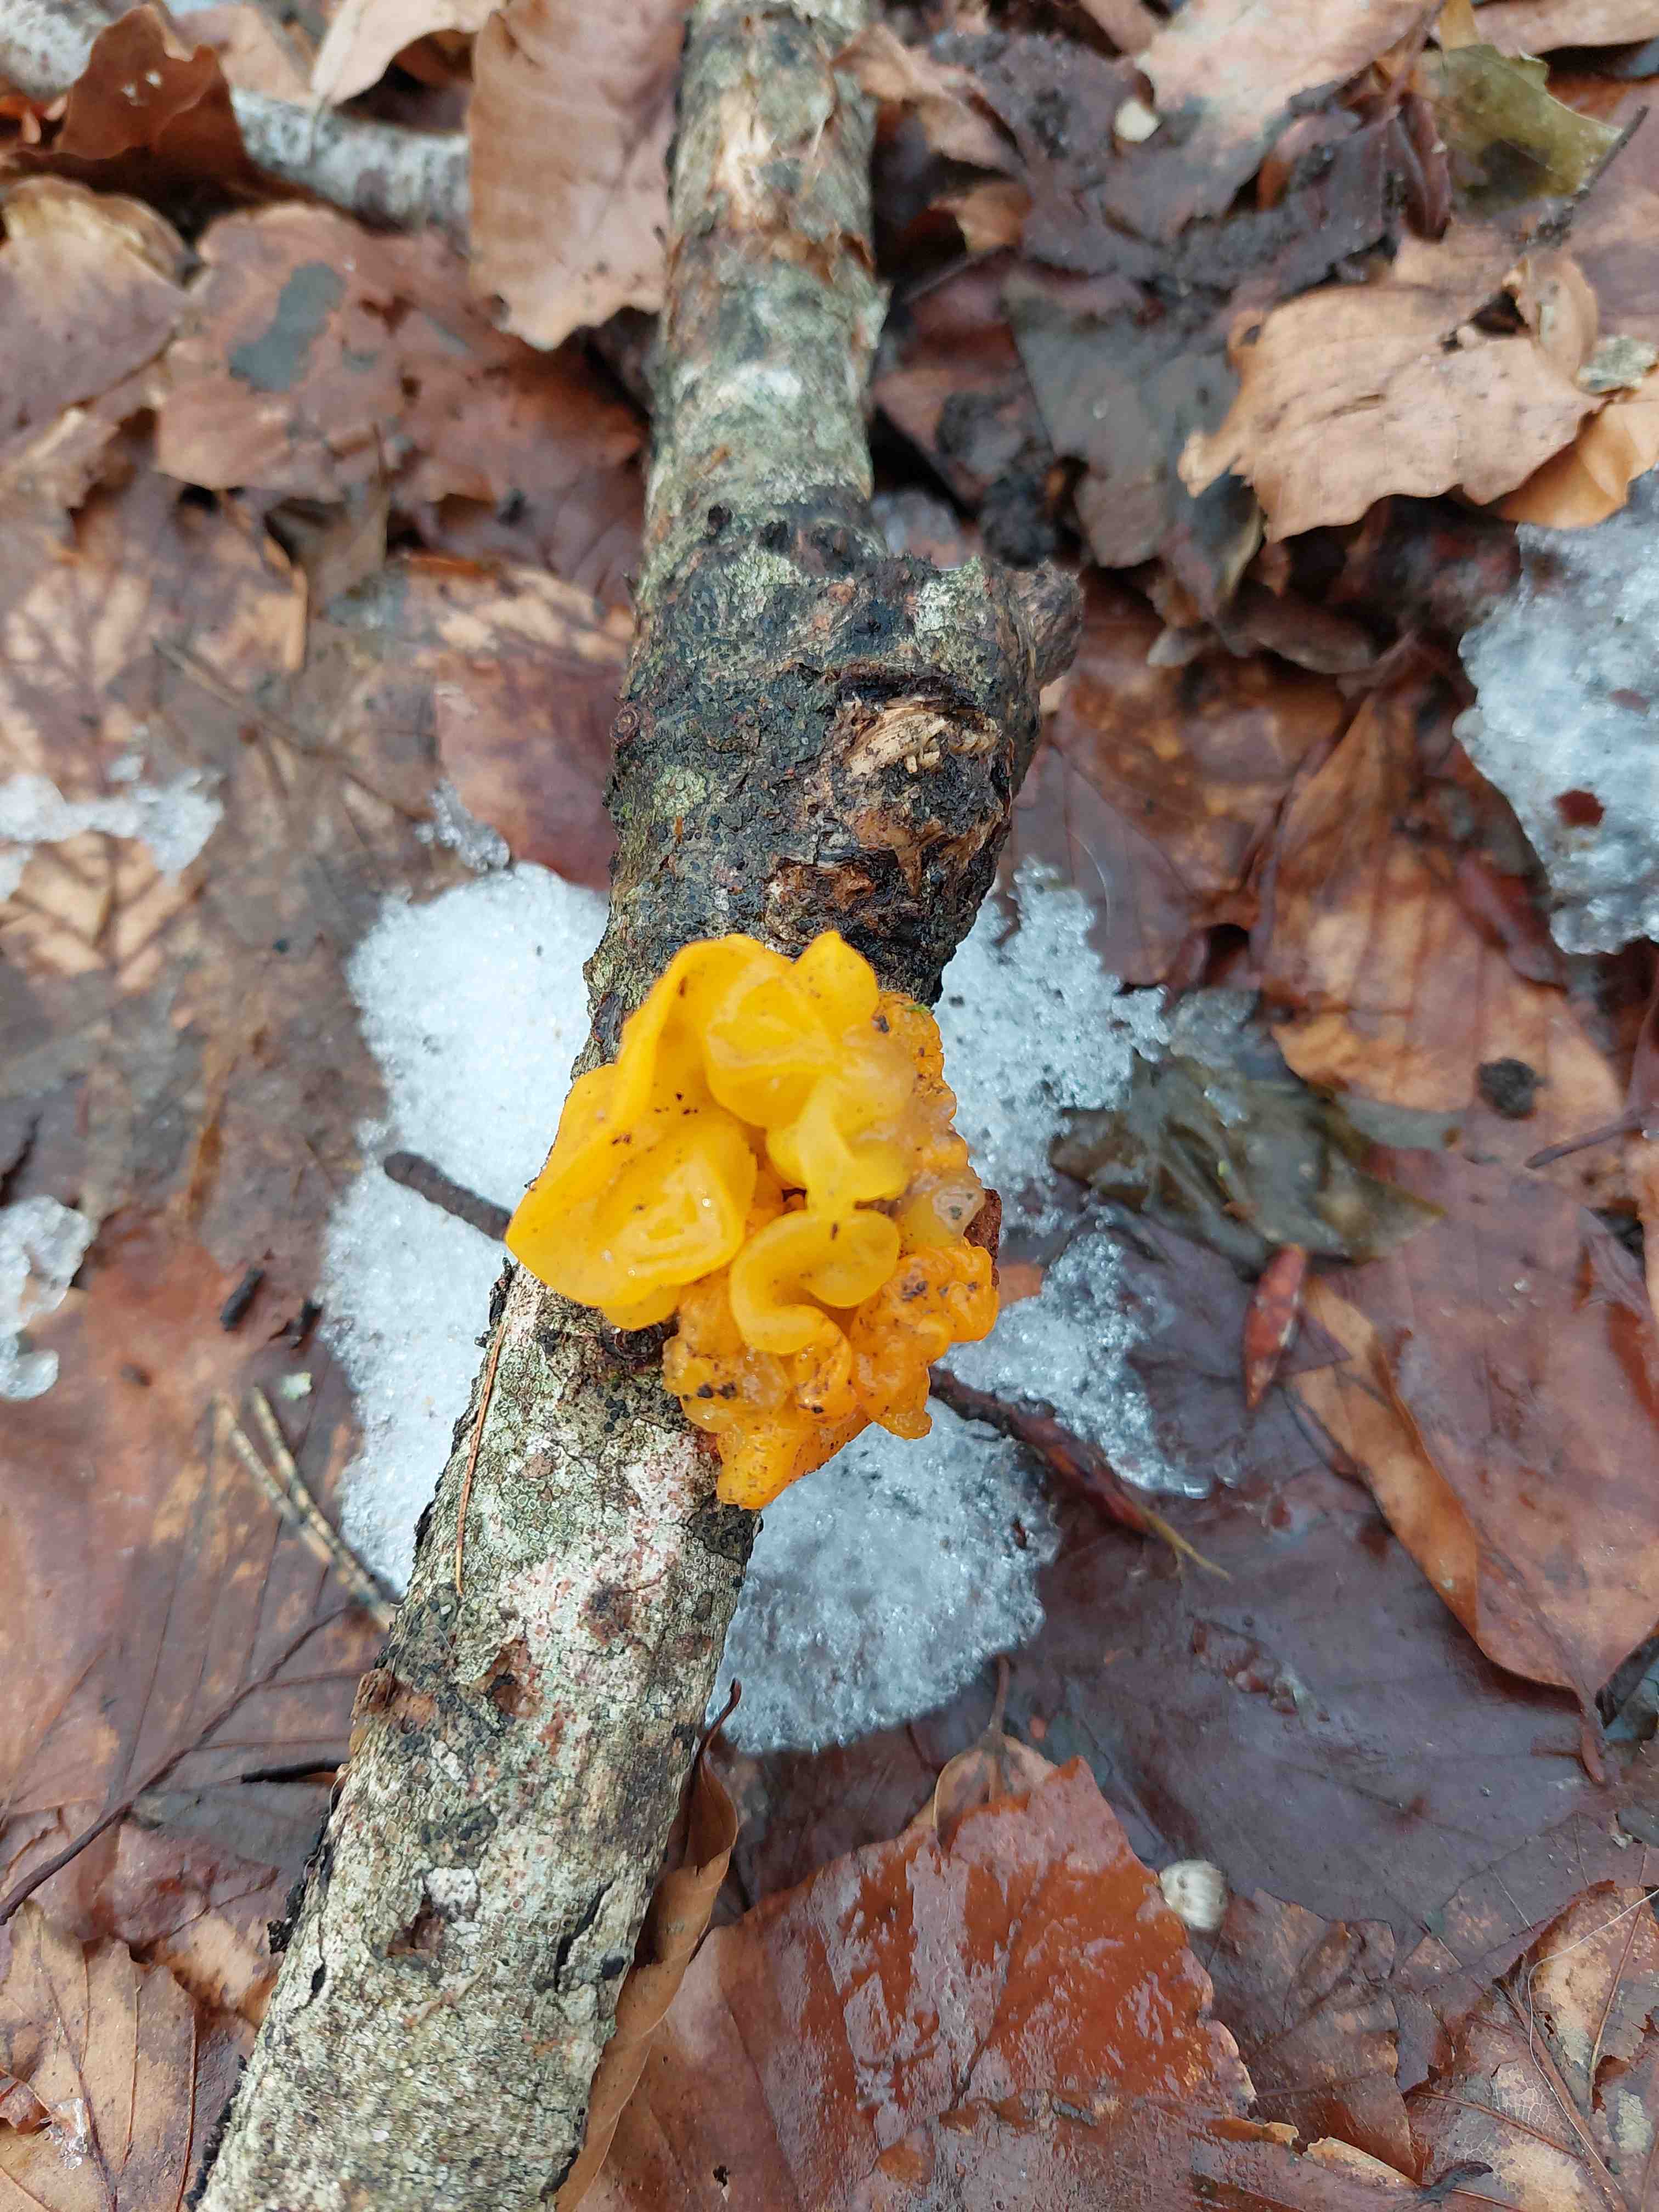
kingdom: Fungi
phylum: Basidiomycota
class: Tremellomycetes
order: Tremellales
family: Tremellaceae
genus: Tremella
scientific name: Tremella mesenterica
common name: gul bævresvamp
